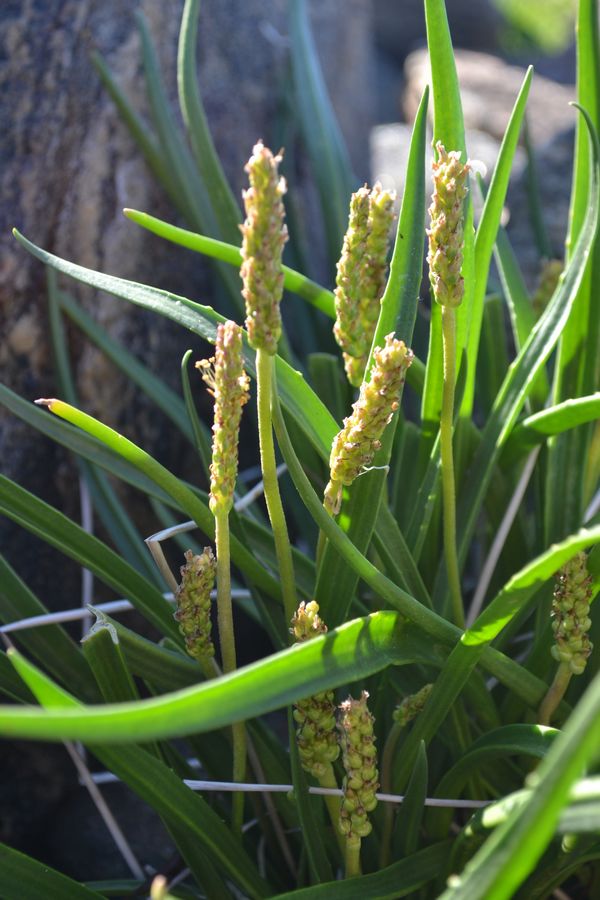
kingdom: Plantae
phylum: Tracheophyta
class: Magnoliopsida
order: Lamiales
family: Plantaginaceae
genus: Plantago
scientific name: Plantago maritima
